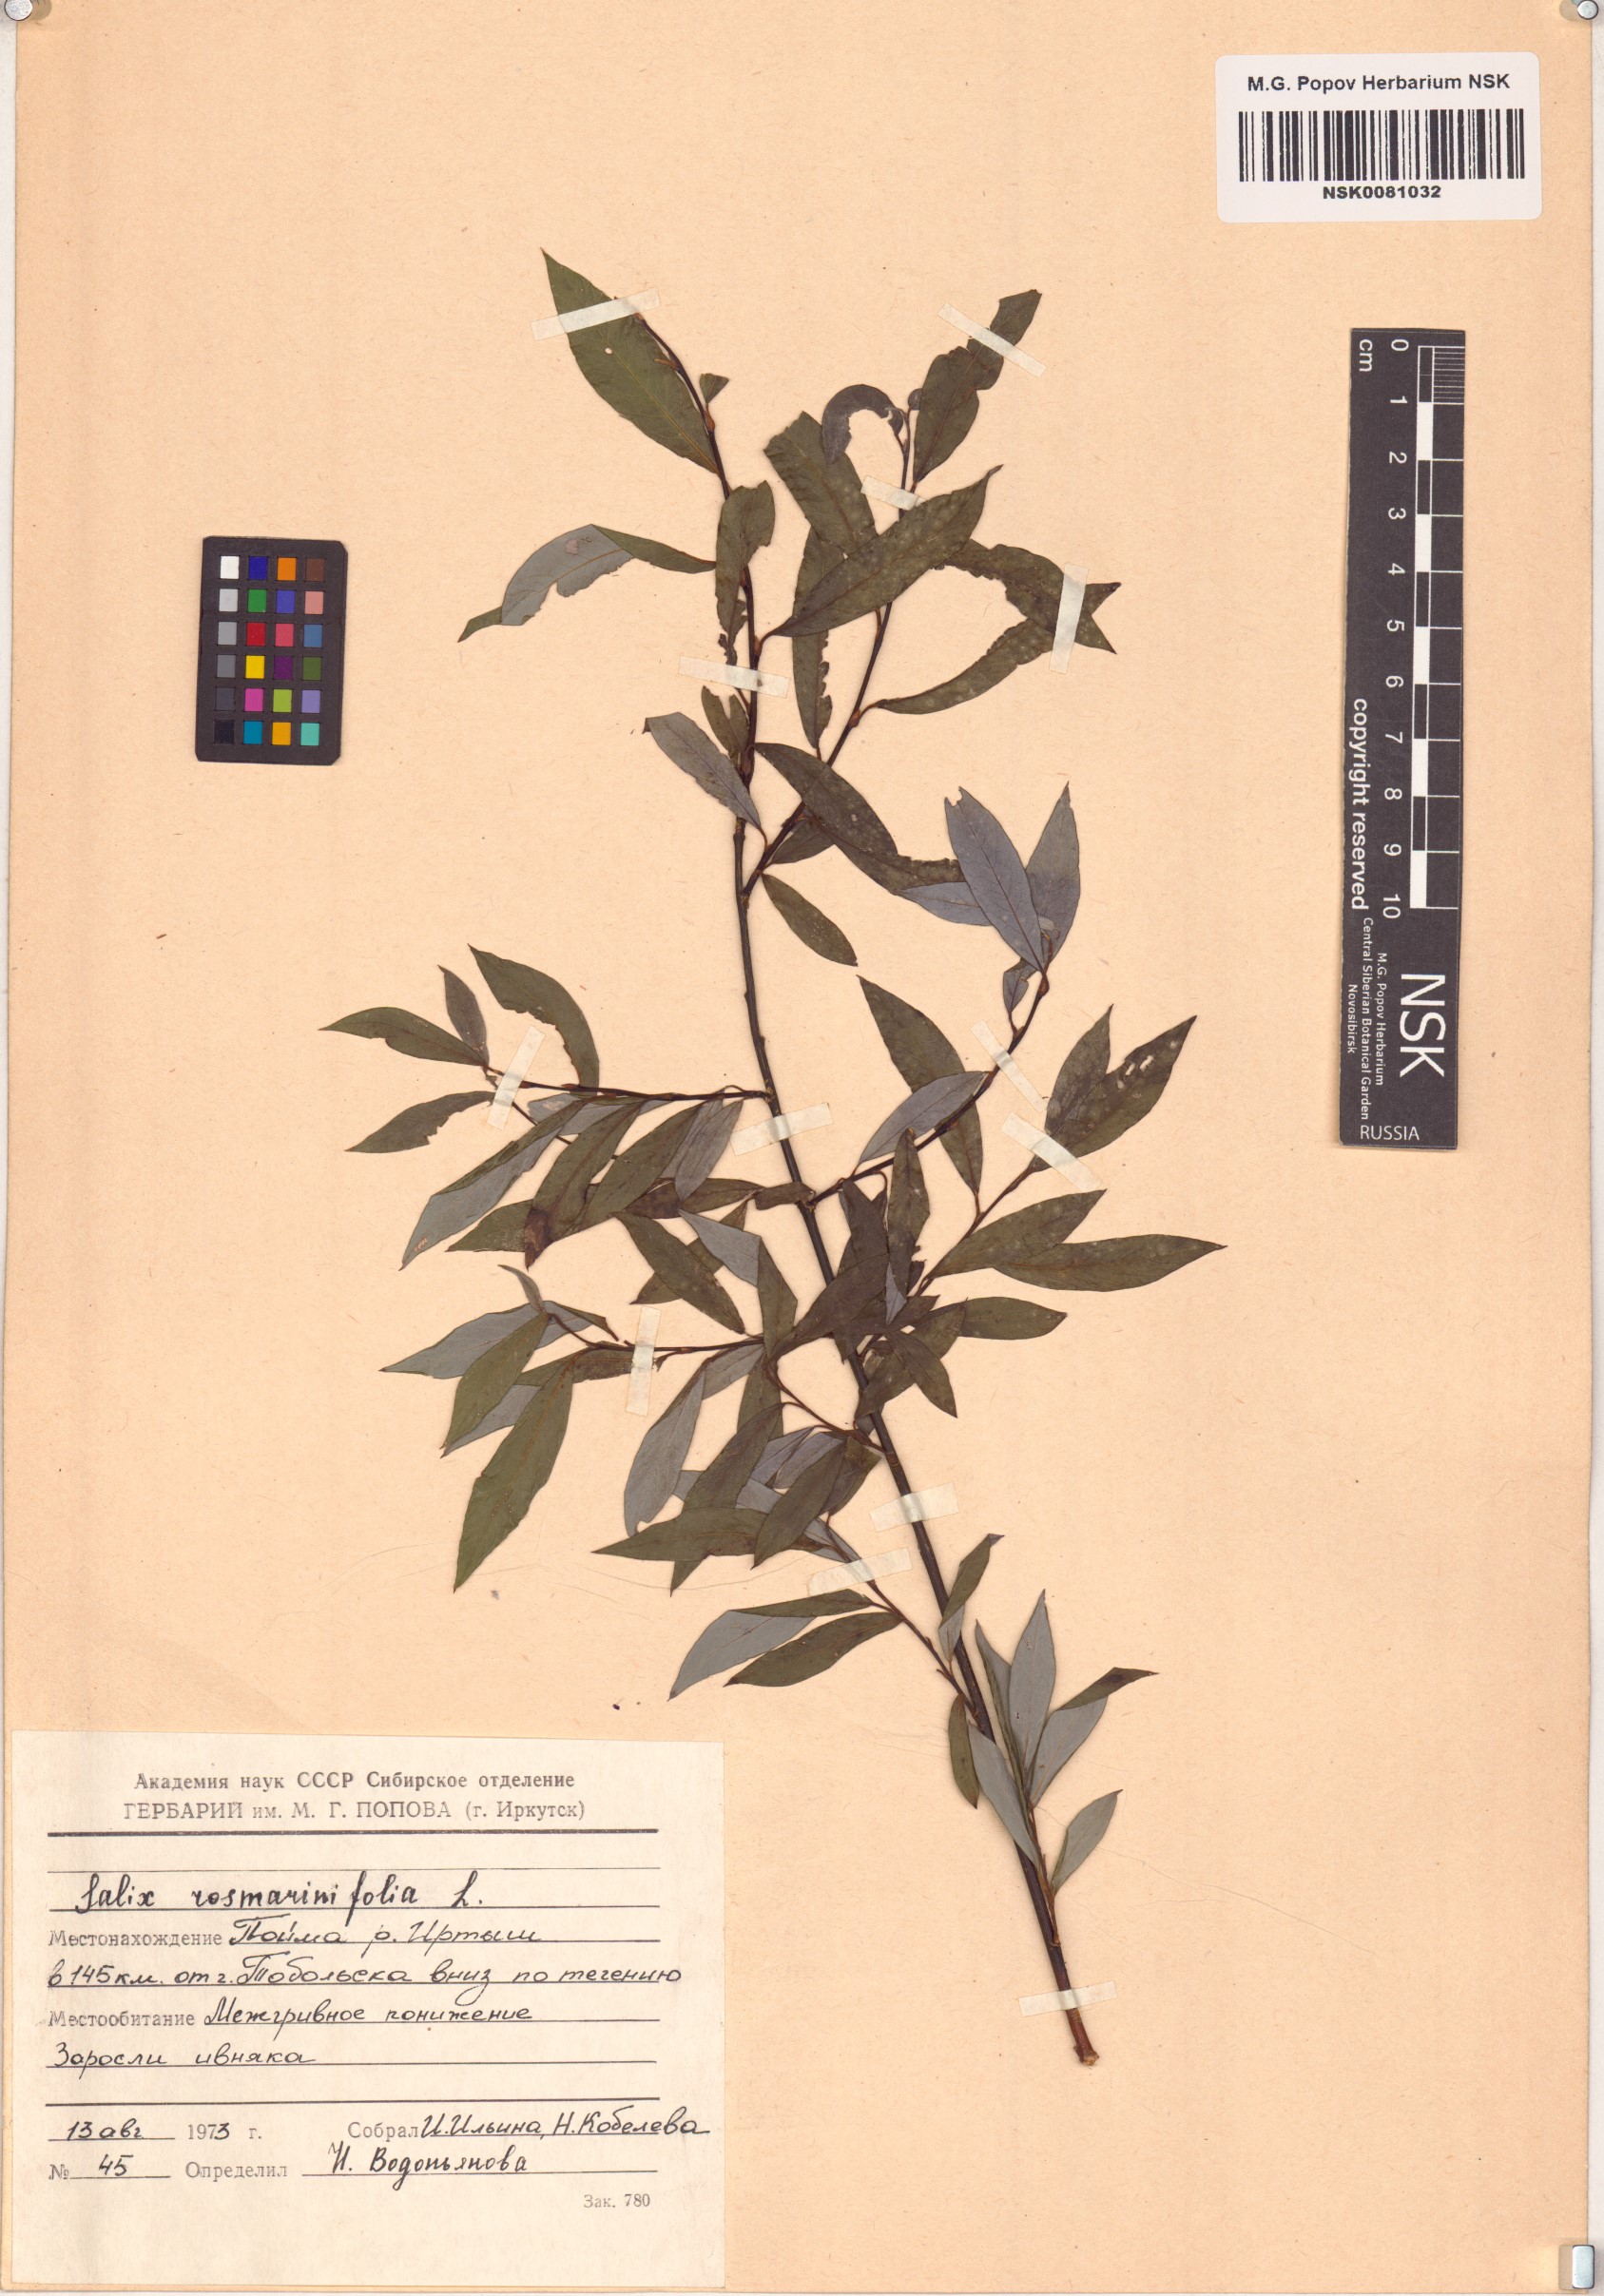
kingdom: Plantae
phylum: Tracheophyta
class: Magnoliopsida
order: Malpighiales
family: Salicaceae
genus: Salix
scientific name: Salix rosmarinifolia
